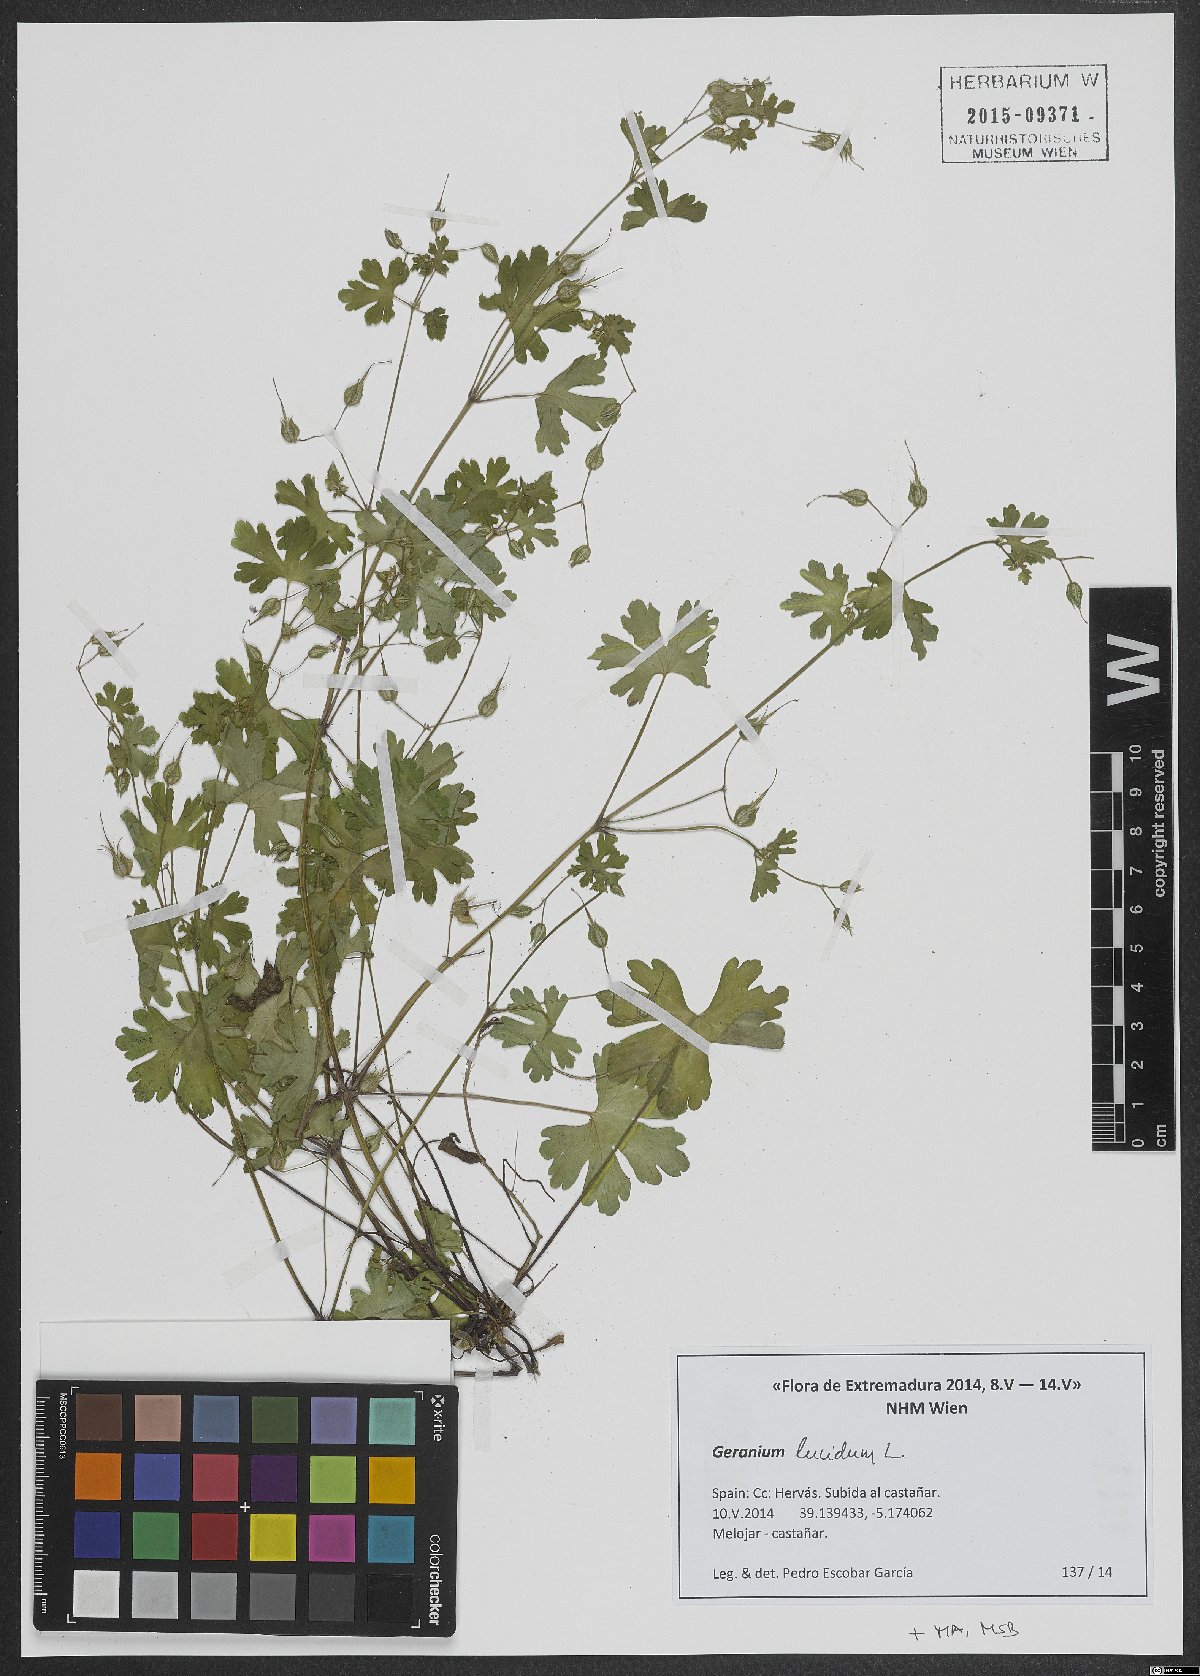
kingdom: Plantae
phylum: Tracheophyta
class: Magnoliopsida
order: Geraniales
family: Geraniaceae
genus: Geranium
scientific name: Geranium lucidum
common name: Shining crane's-bill
